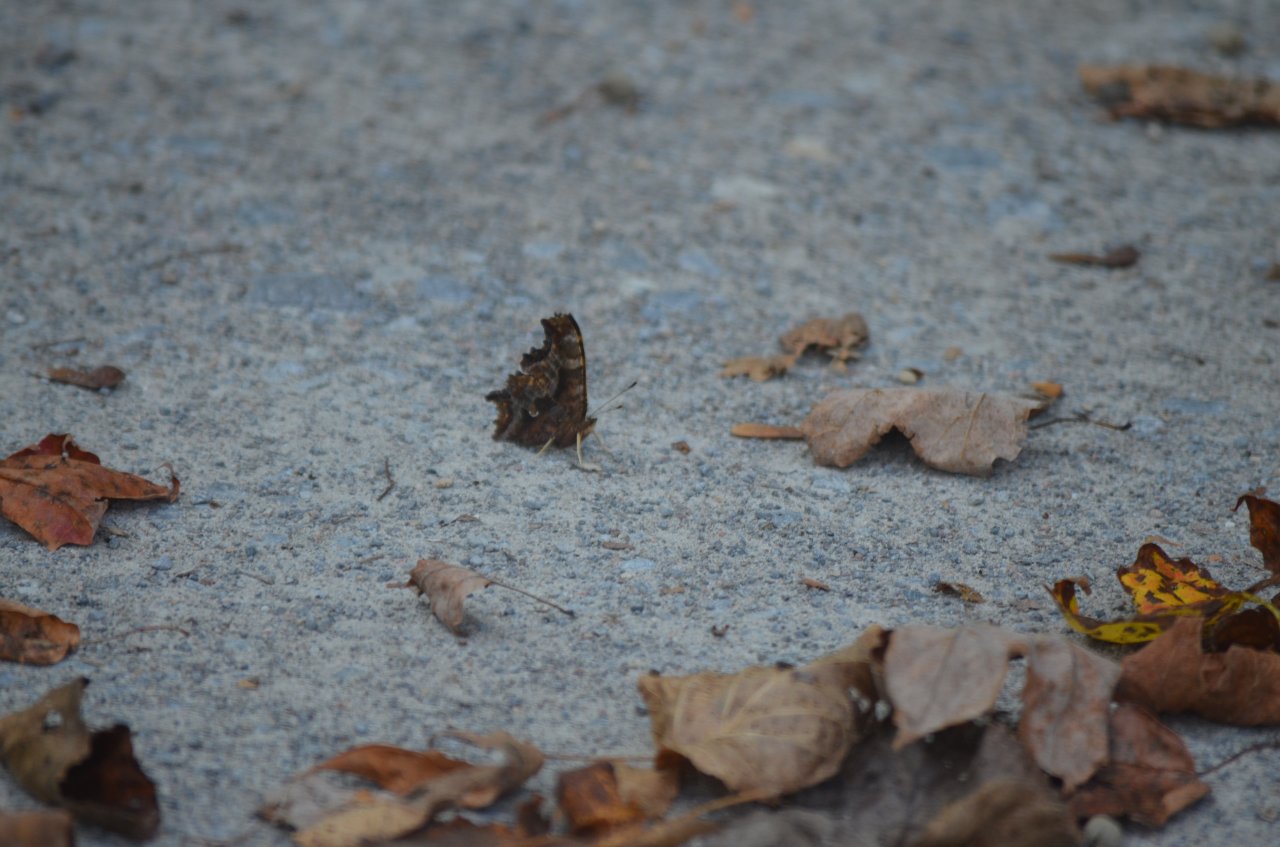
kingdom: Animalia
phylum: Arthropoda
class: Insecta
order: Lepidoptera
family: Nymphalidae
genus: Polygonia
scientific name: Polygonia comma
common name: Eastern Comma
